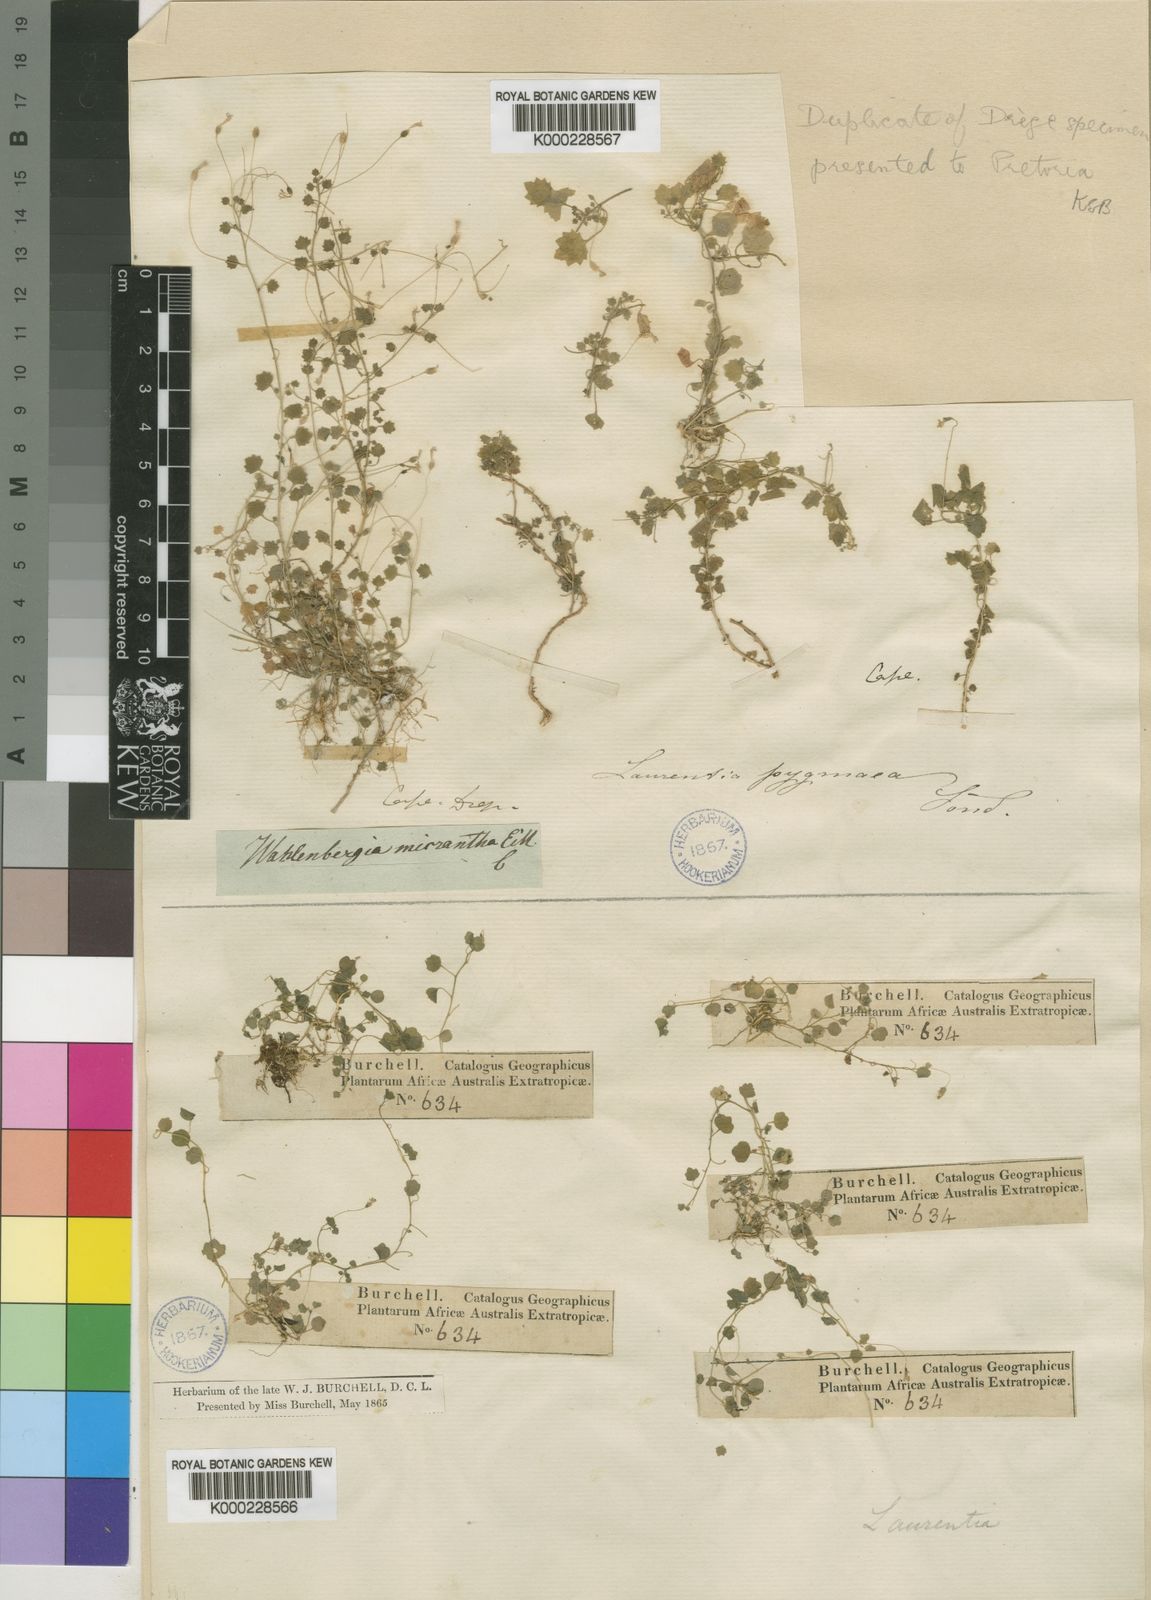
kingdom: Plantae
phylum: Tracheophyta
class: Magnoliopsida
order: Asterales
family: Campanulaceae
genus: Wahlenbergia
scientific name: Wahlenbergia pygmaea
